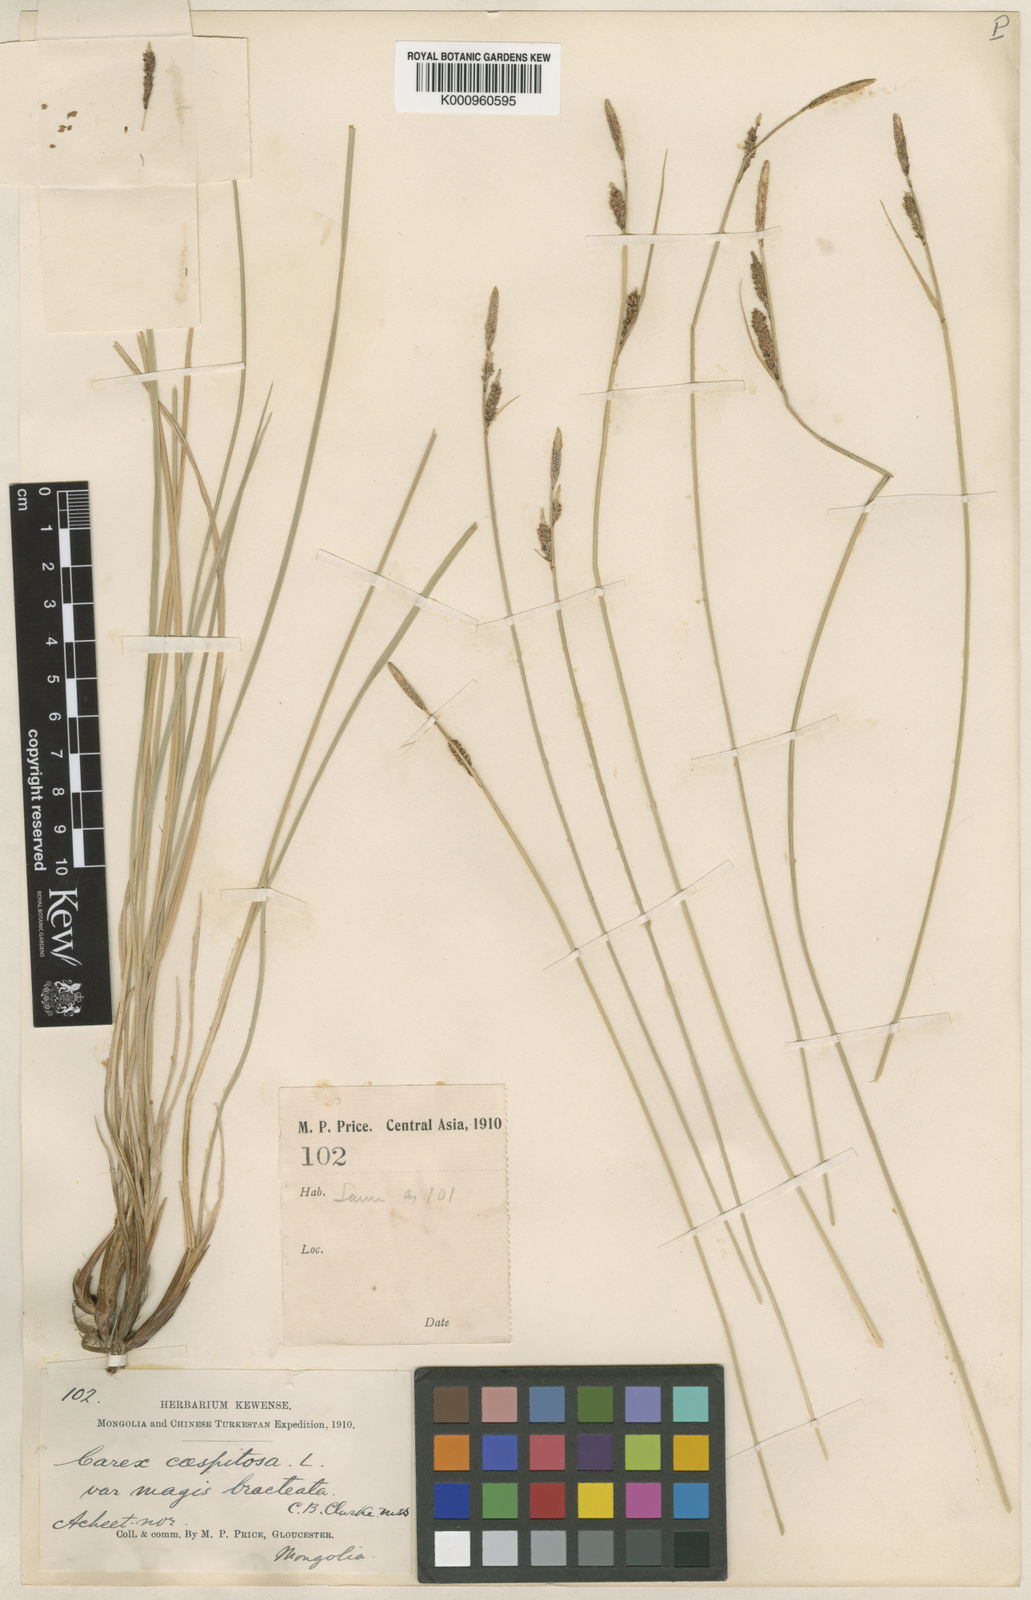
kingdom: Plantae
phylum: Tracheophyta
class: Liliopsida
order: Poales
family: Cyperaceae
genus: Carex
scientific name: Carex cespitosa
